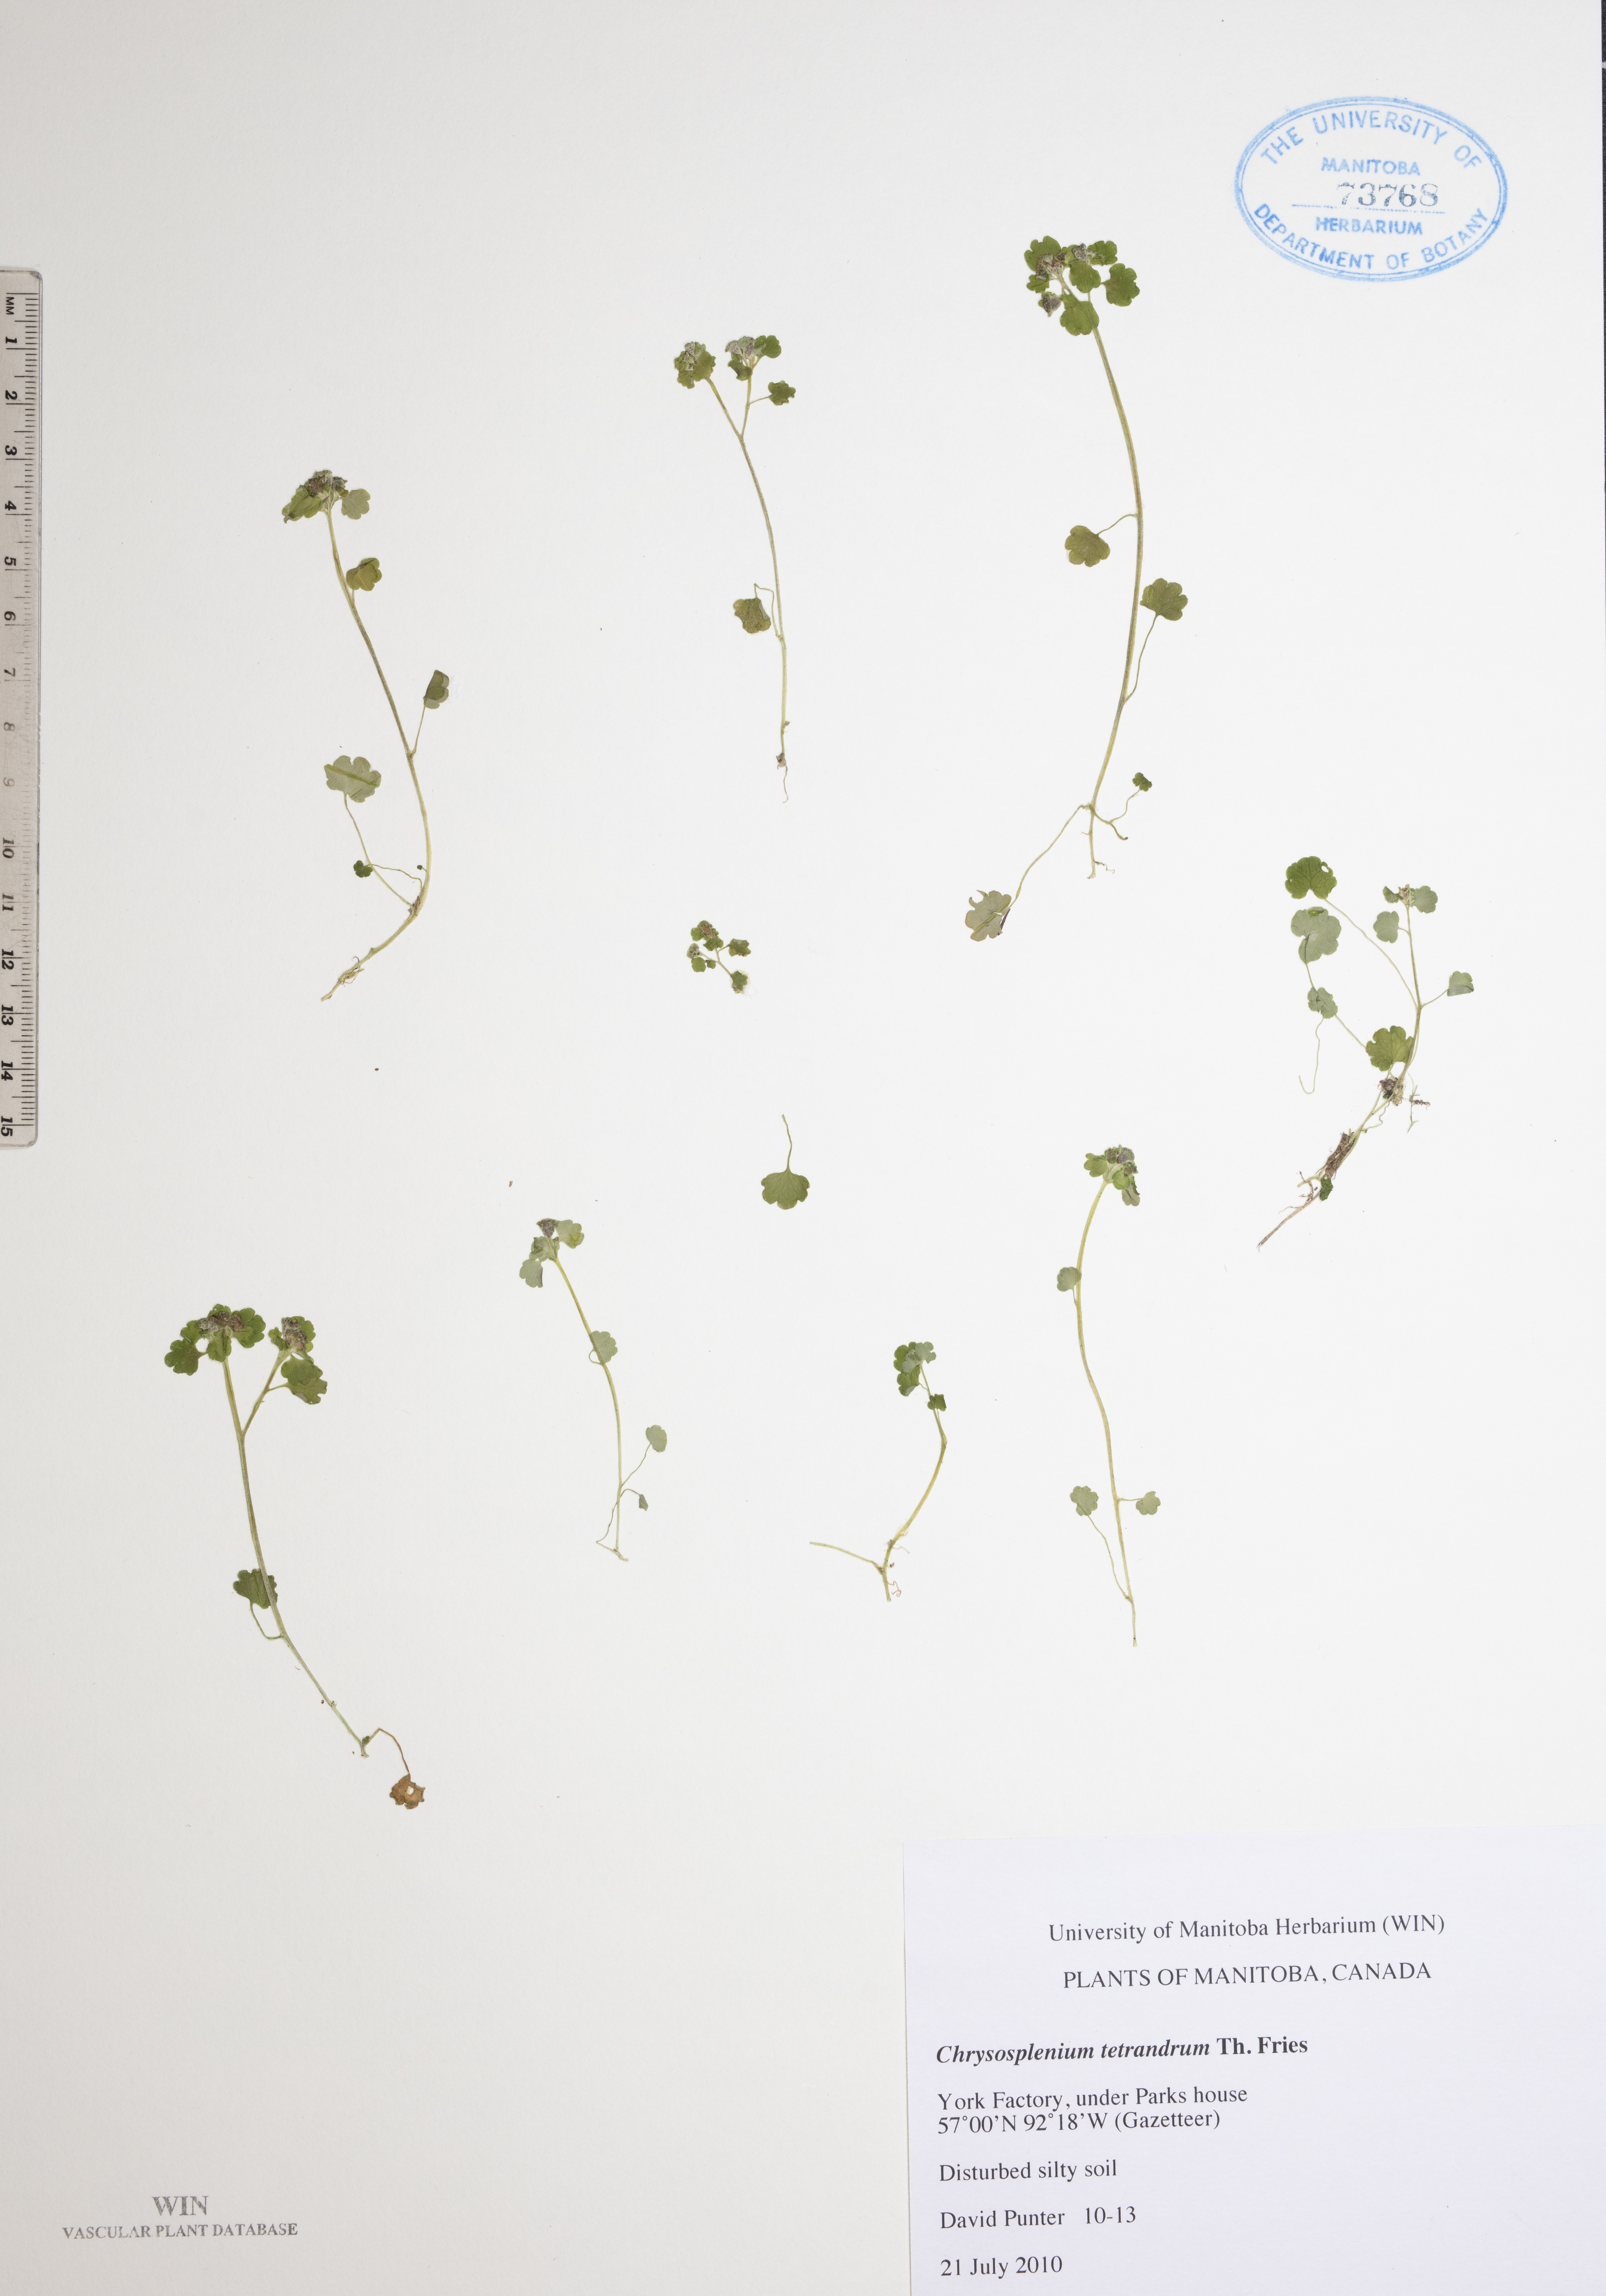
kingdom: Plantae
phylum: Tracheophyta
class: Magnoliopsida
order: Saxifragales
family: Saxifragaceae
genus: Chrysosplenium
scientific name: Chrysosplenium tetrandrum
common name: Green saxifrage
